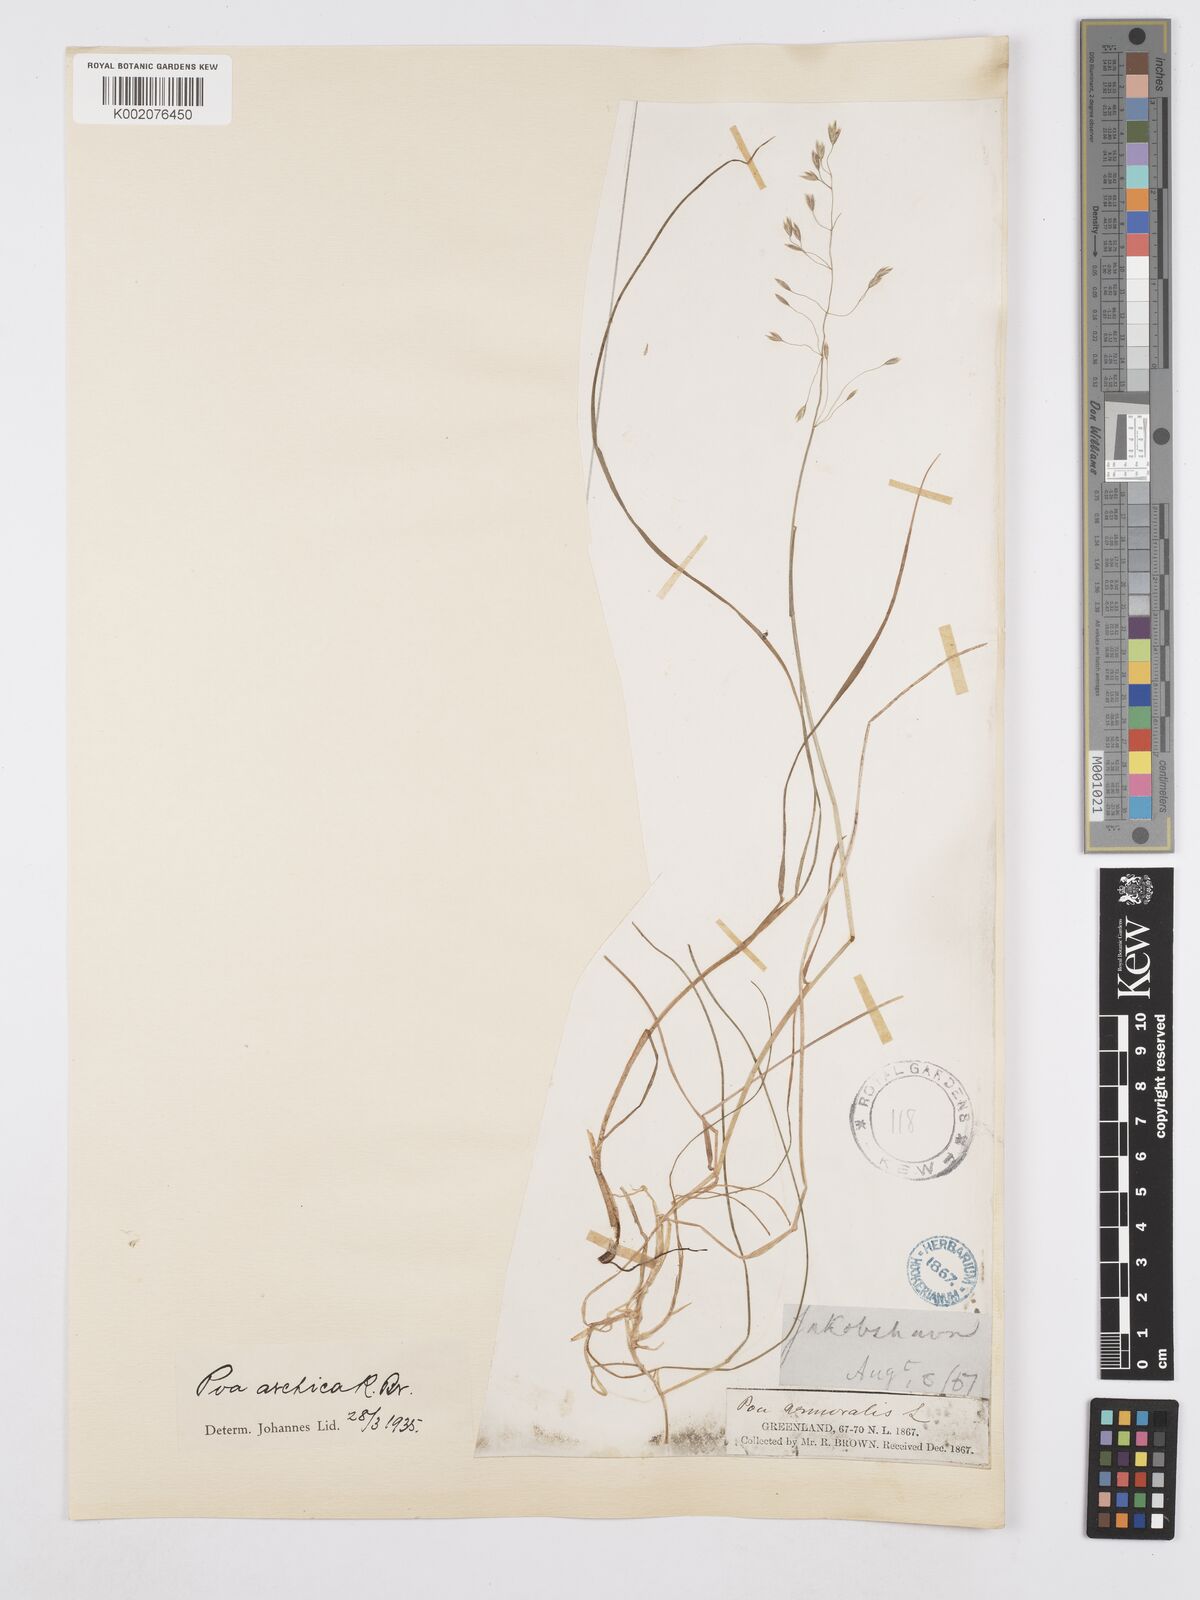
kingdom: Plantae
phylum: Tracheophyta
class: Liliopsida
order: Poales
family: Poaceae
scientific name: Poaceae
